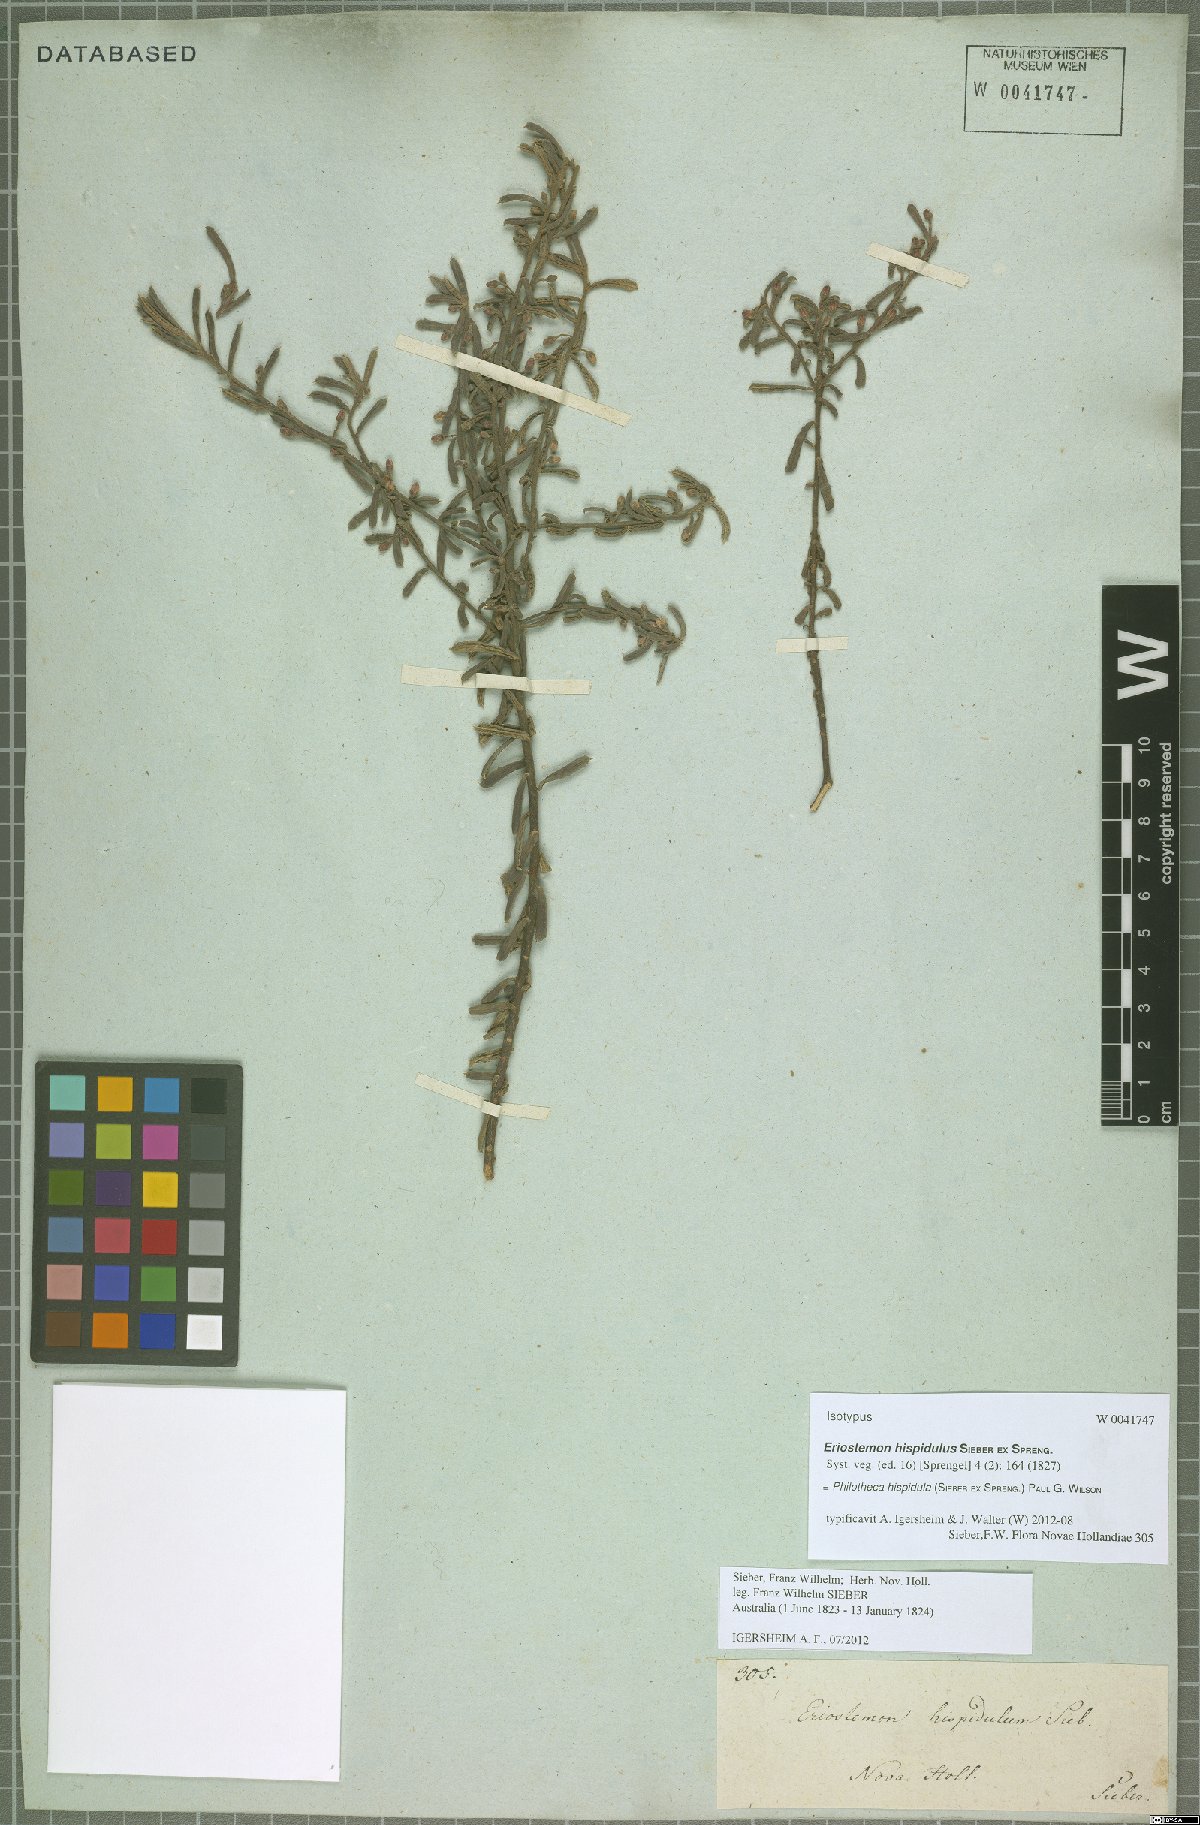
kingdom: Plantae
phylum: Tracheophyta
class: Magnoliopsida
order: Sapindales
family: Rutaceae
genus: Philotheca
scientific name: Philotheca hispidula
